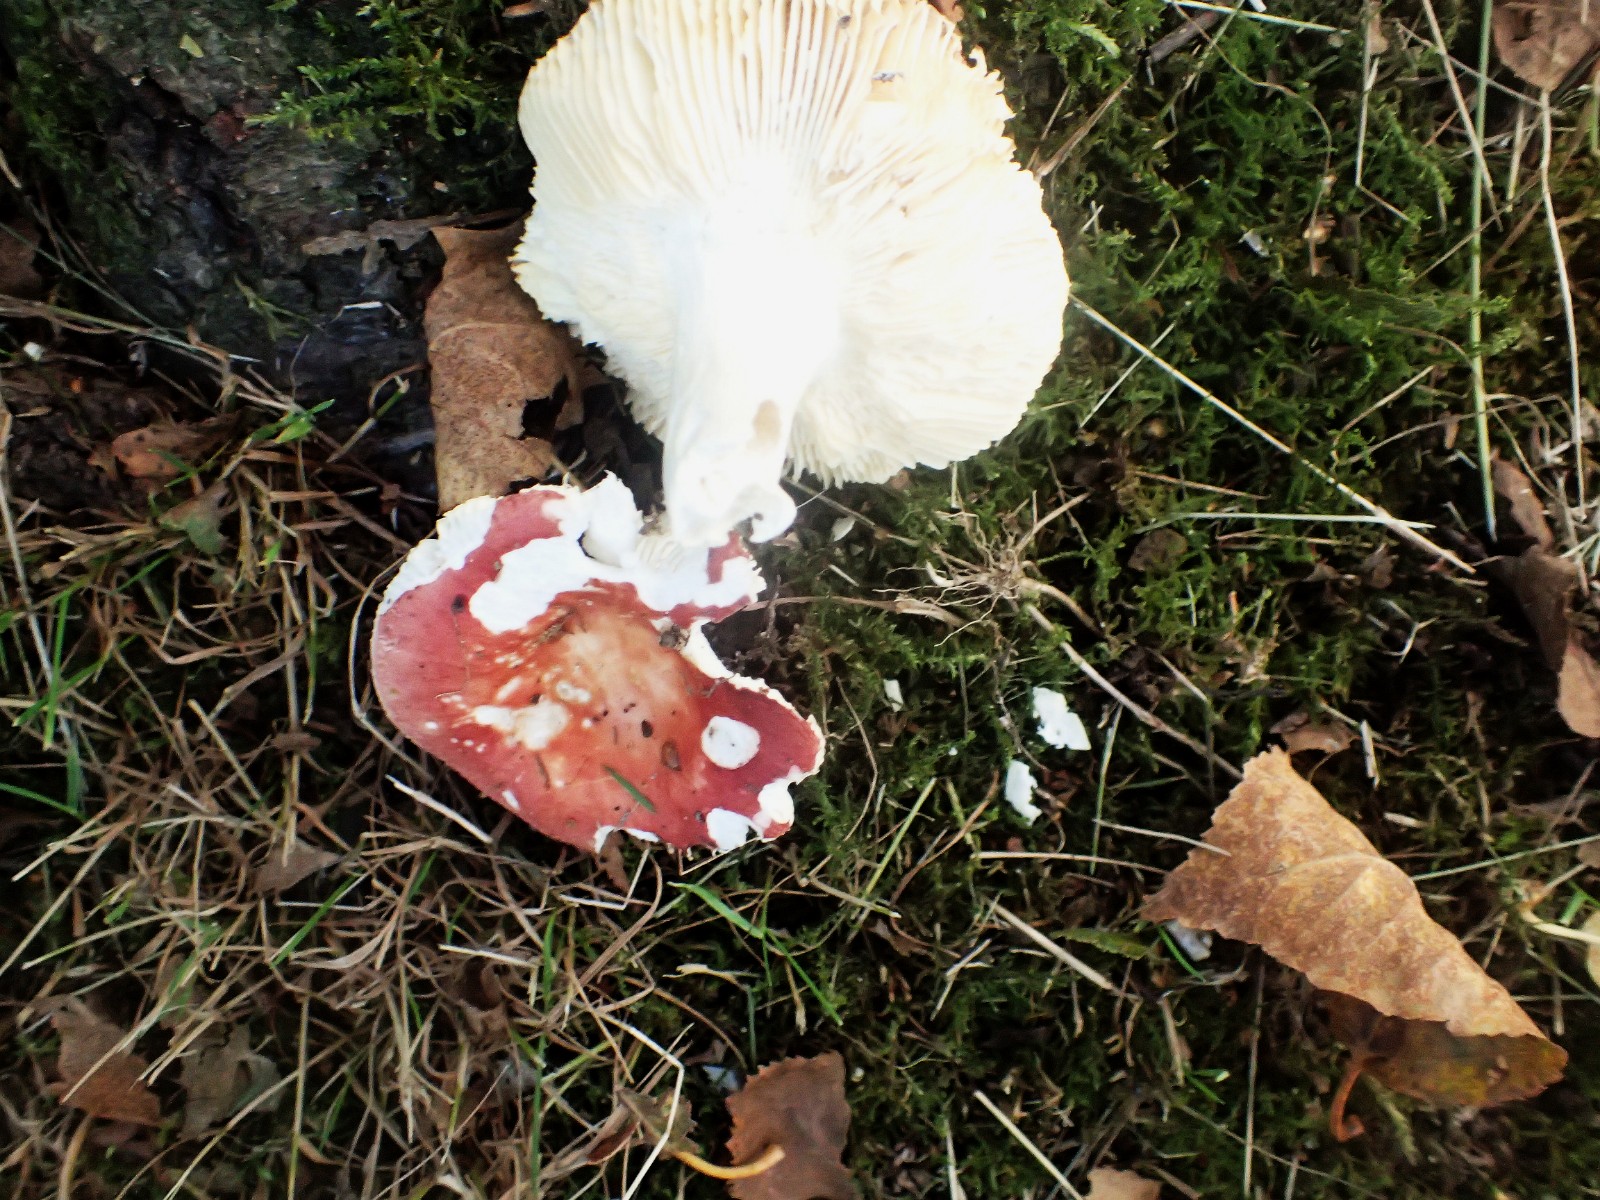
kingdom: Fungi
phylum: Basidiomycota
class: Agaricomycetes
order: Russulales
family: Russulaceae
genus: Russula
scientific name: Russula
